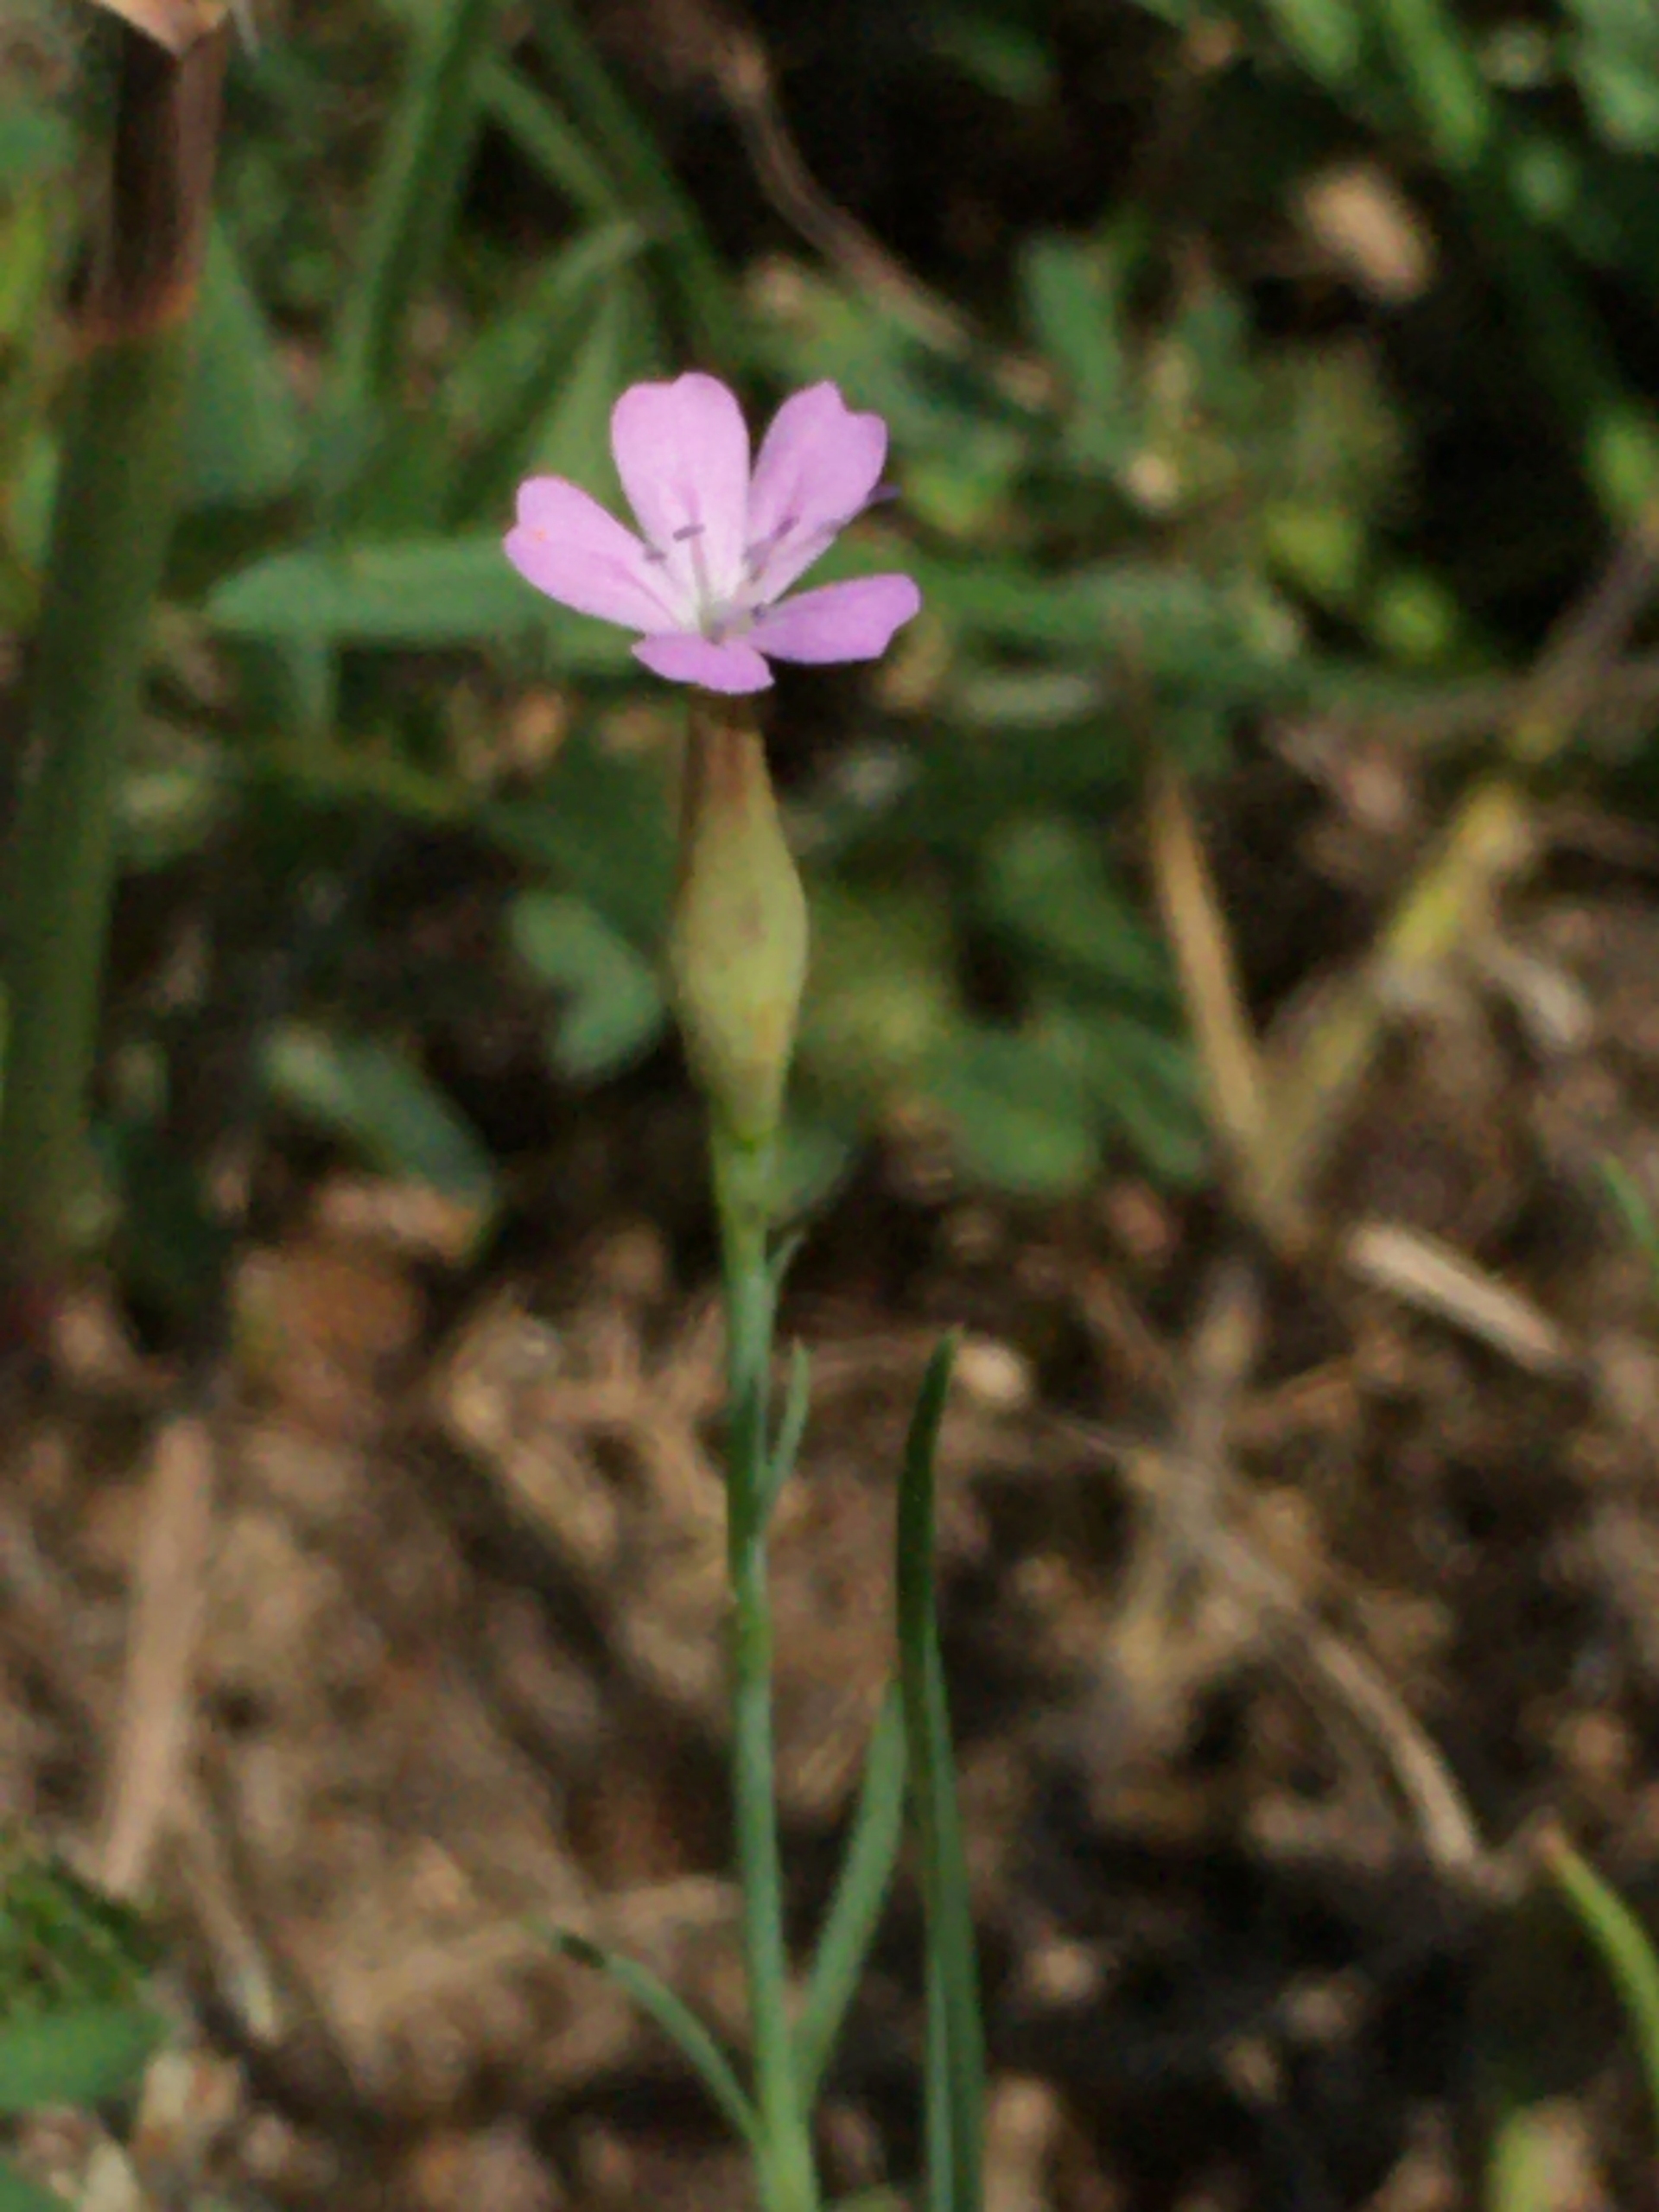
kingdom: Plantae
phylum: Tracheophyta
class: Magnoliopsida
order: Caryophyllales
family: Caryophyllaceae
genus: Petrorhagia
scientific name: Petrorhagia prolifera
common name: Knopnellike
